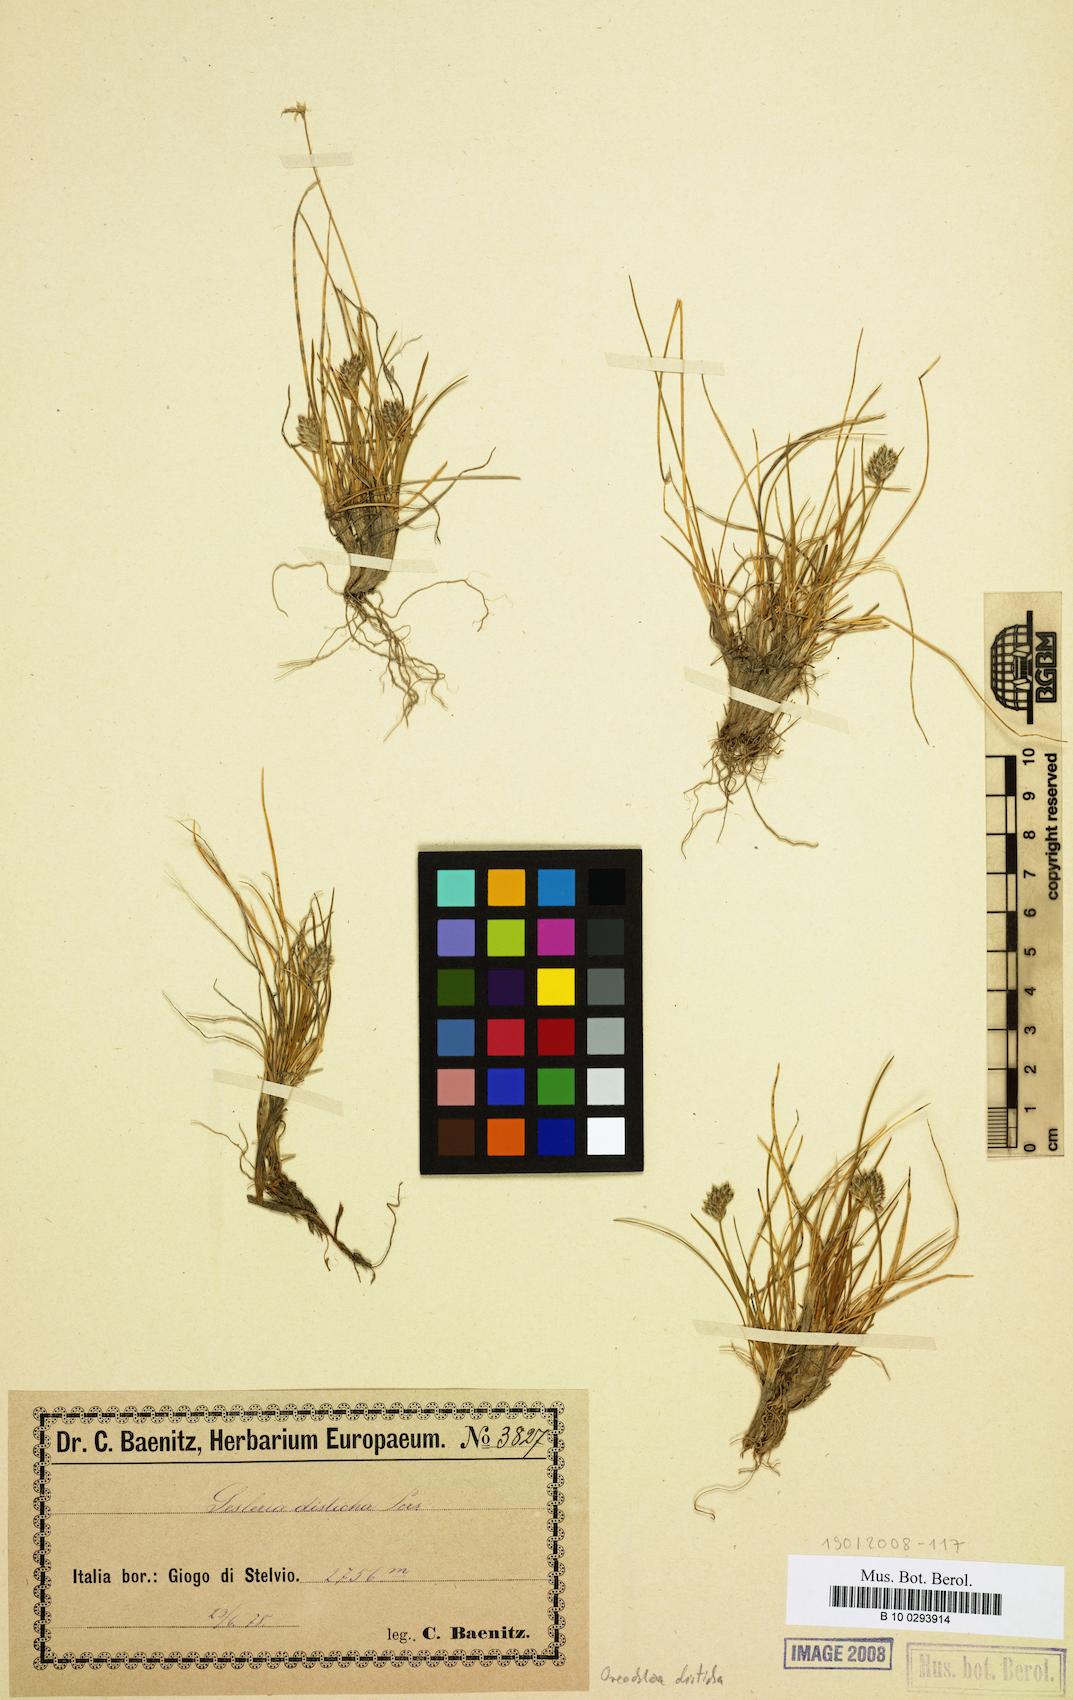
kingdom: Plantae
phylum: Tracheophyta
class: Liliopsida
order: Poales
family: Poaceae
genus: Oreochloa
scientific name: Oreochloa disticha
